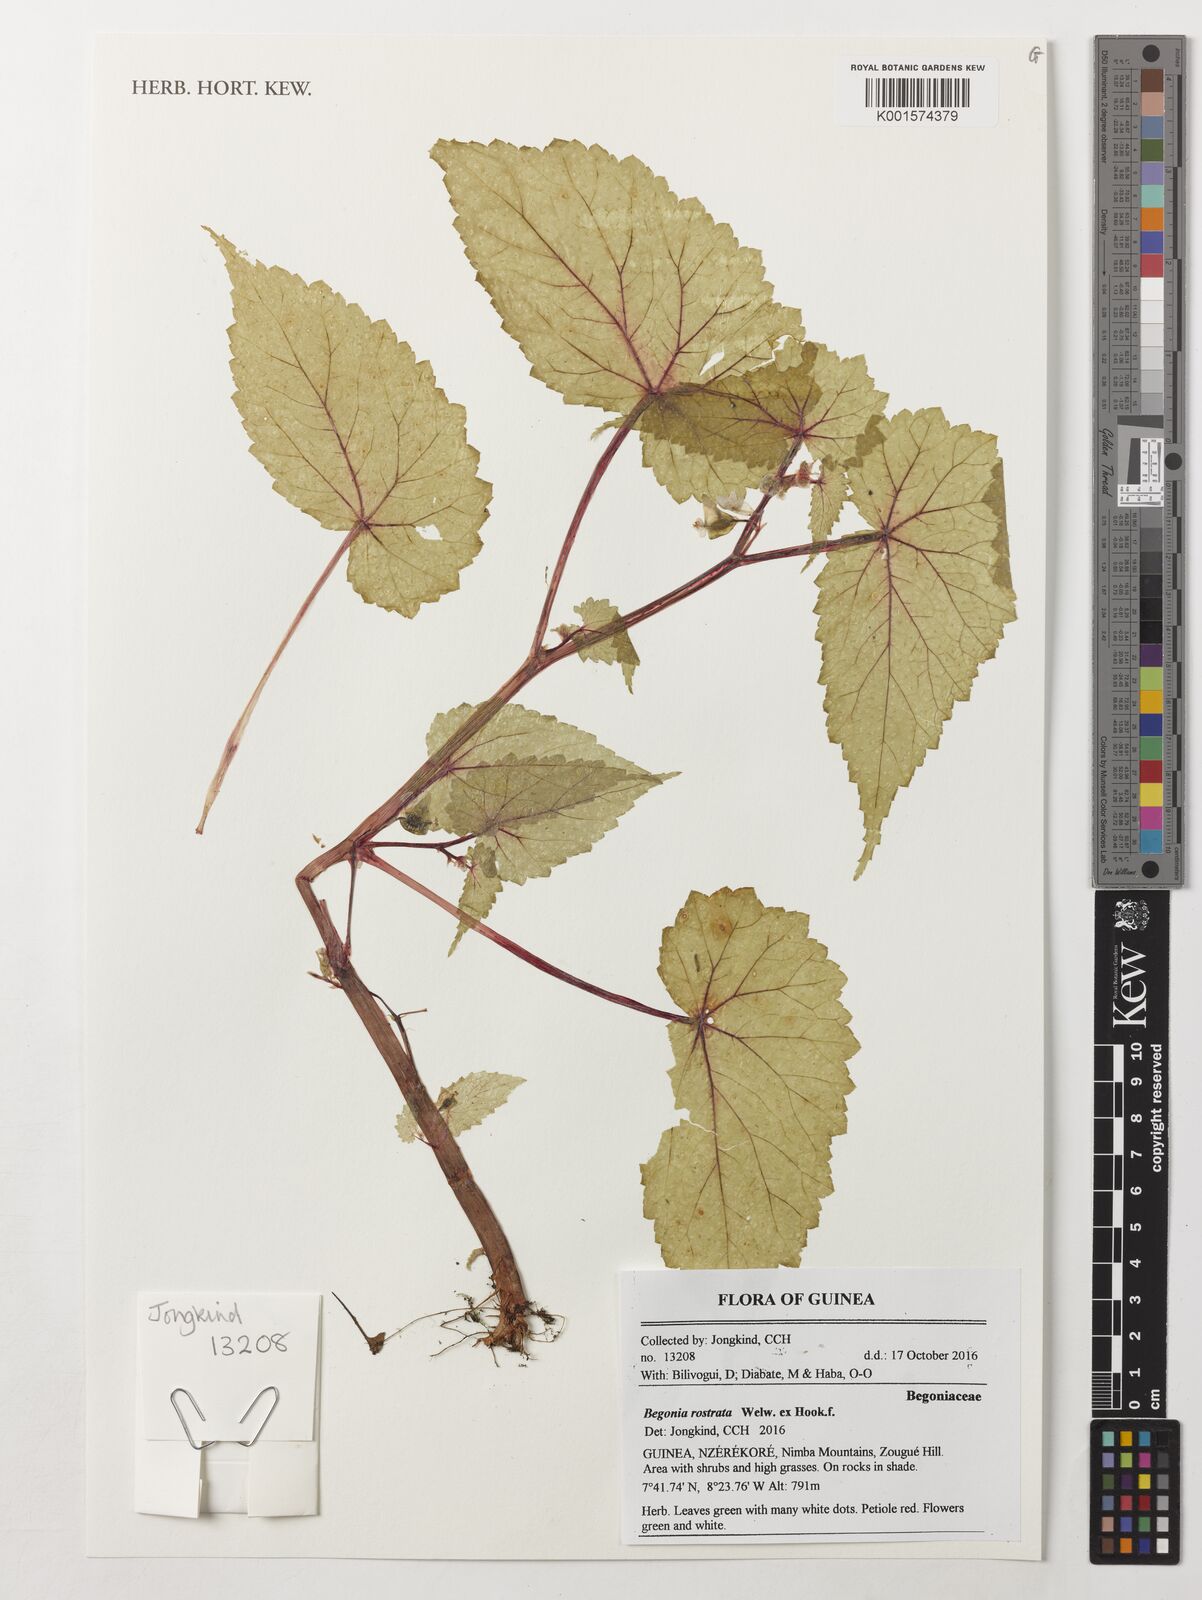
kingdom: Plantae
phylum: Tracheophyta
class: Magnoliopsida
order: Cucurbitales
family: Begoniaceae
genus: Begonia
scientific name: Begonia rostrata
